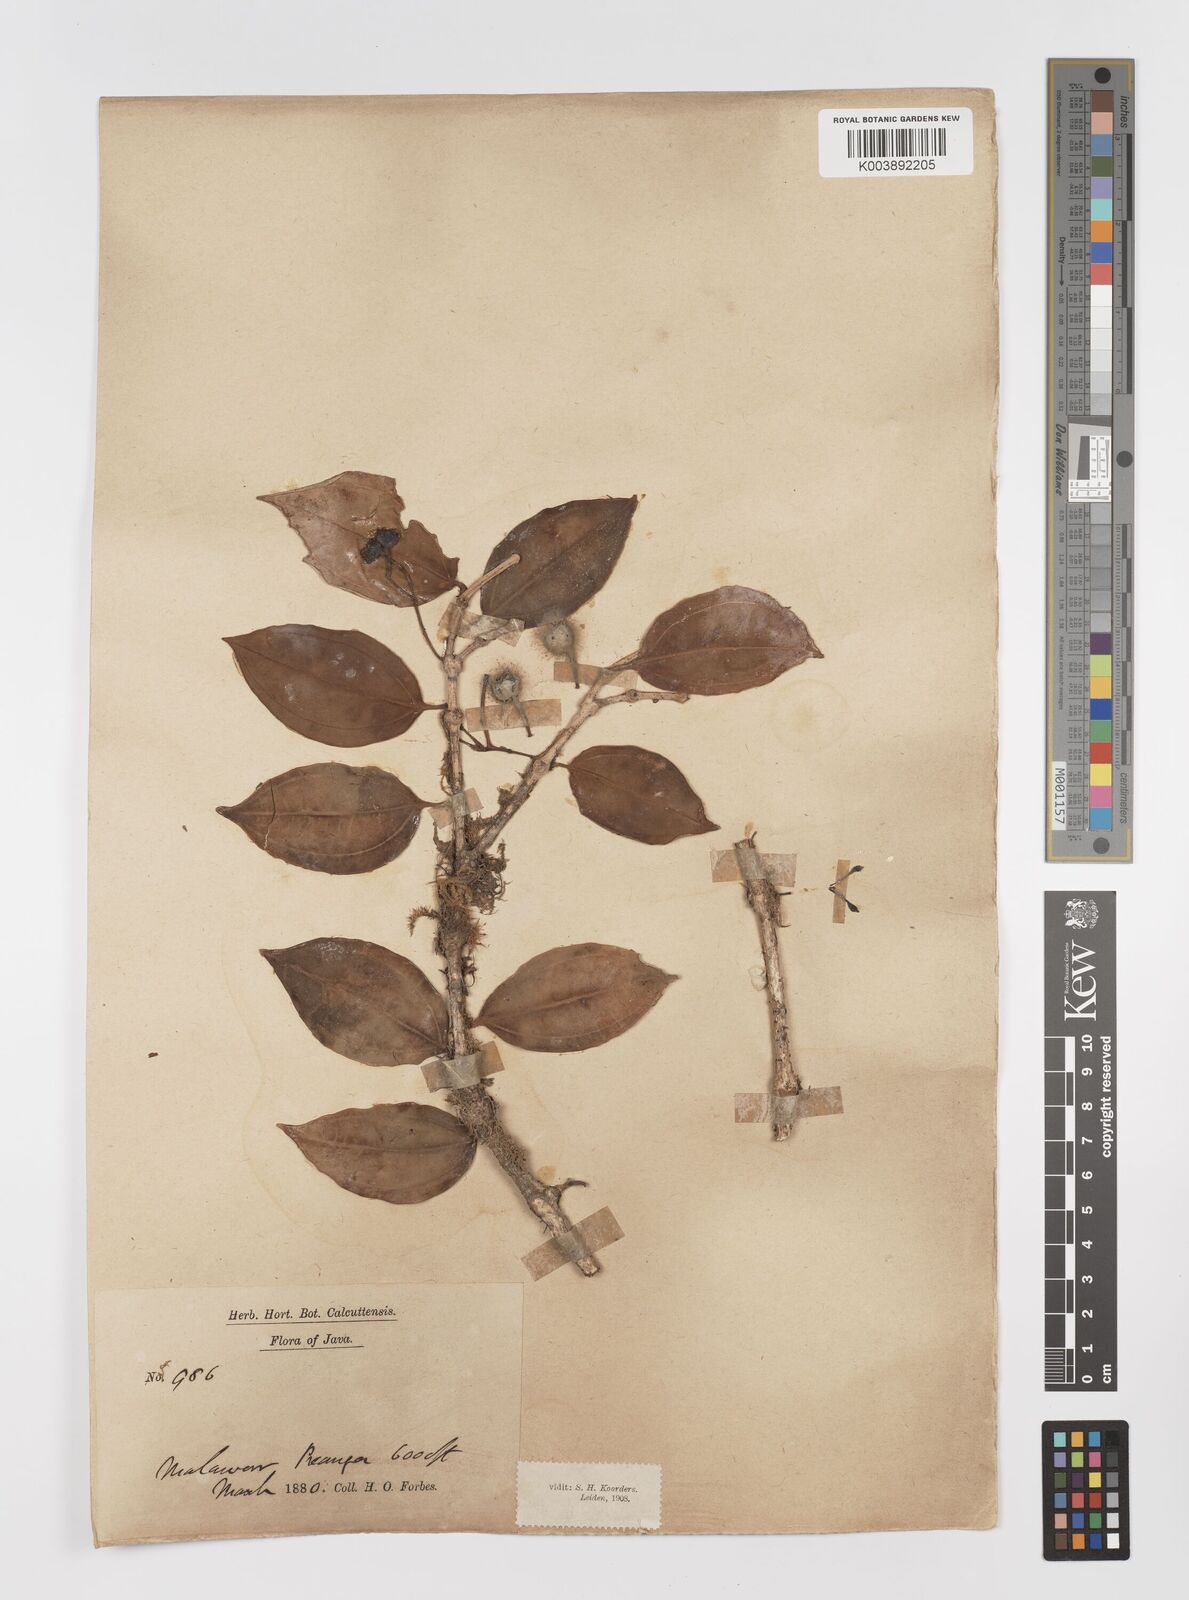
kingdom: Plantae
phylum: Tracheophyta
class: Magnoliopsida
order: Myrtales
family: Melastomataceae
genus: Medinilla
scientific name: Medinilla laurifolia
